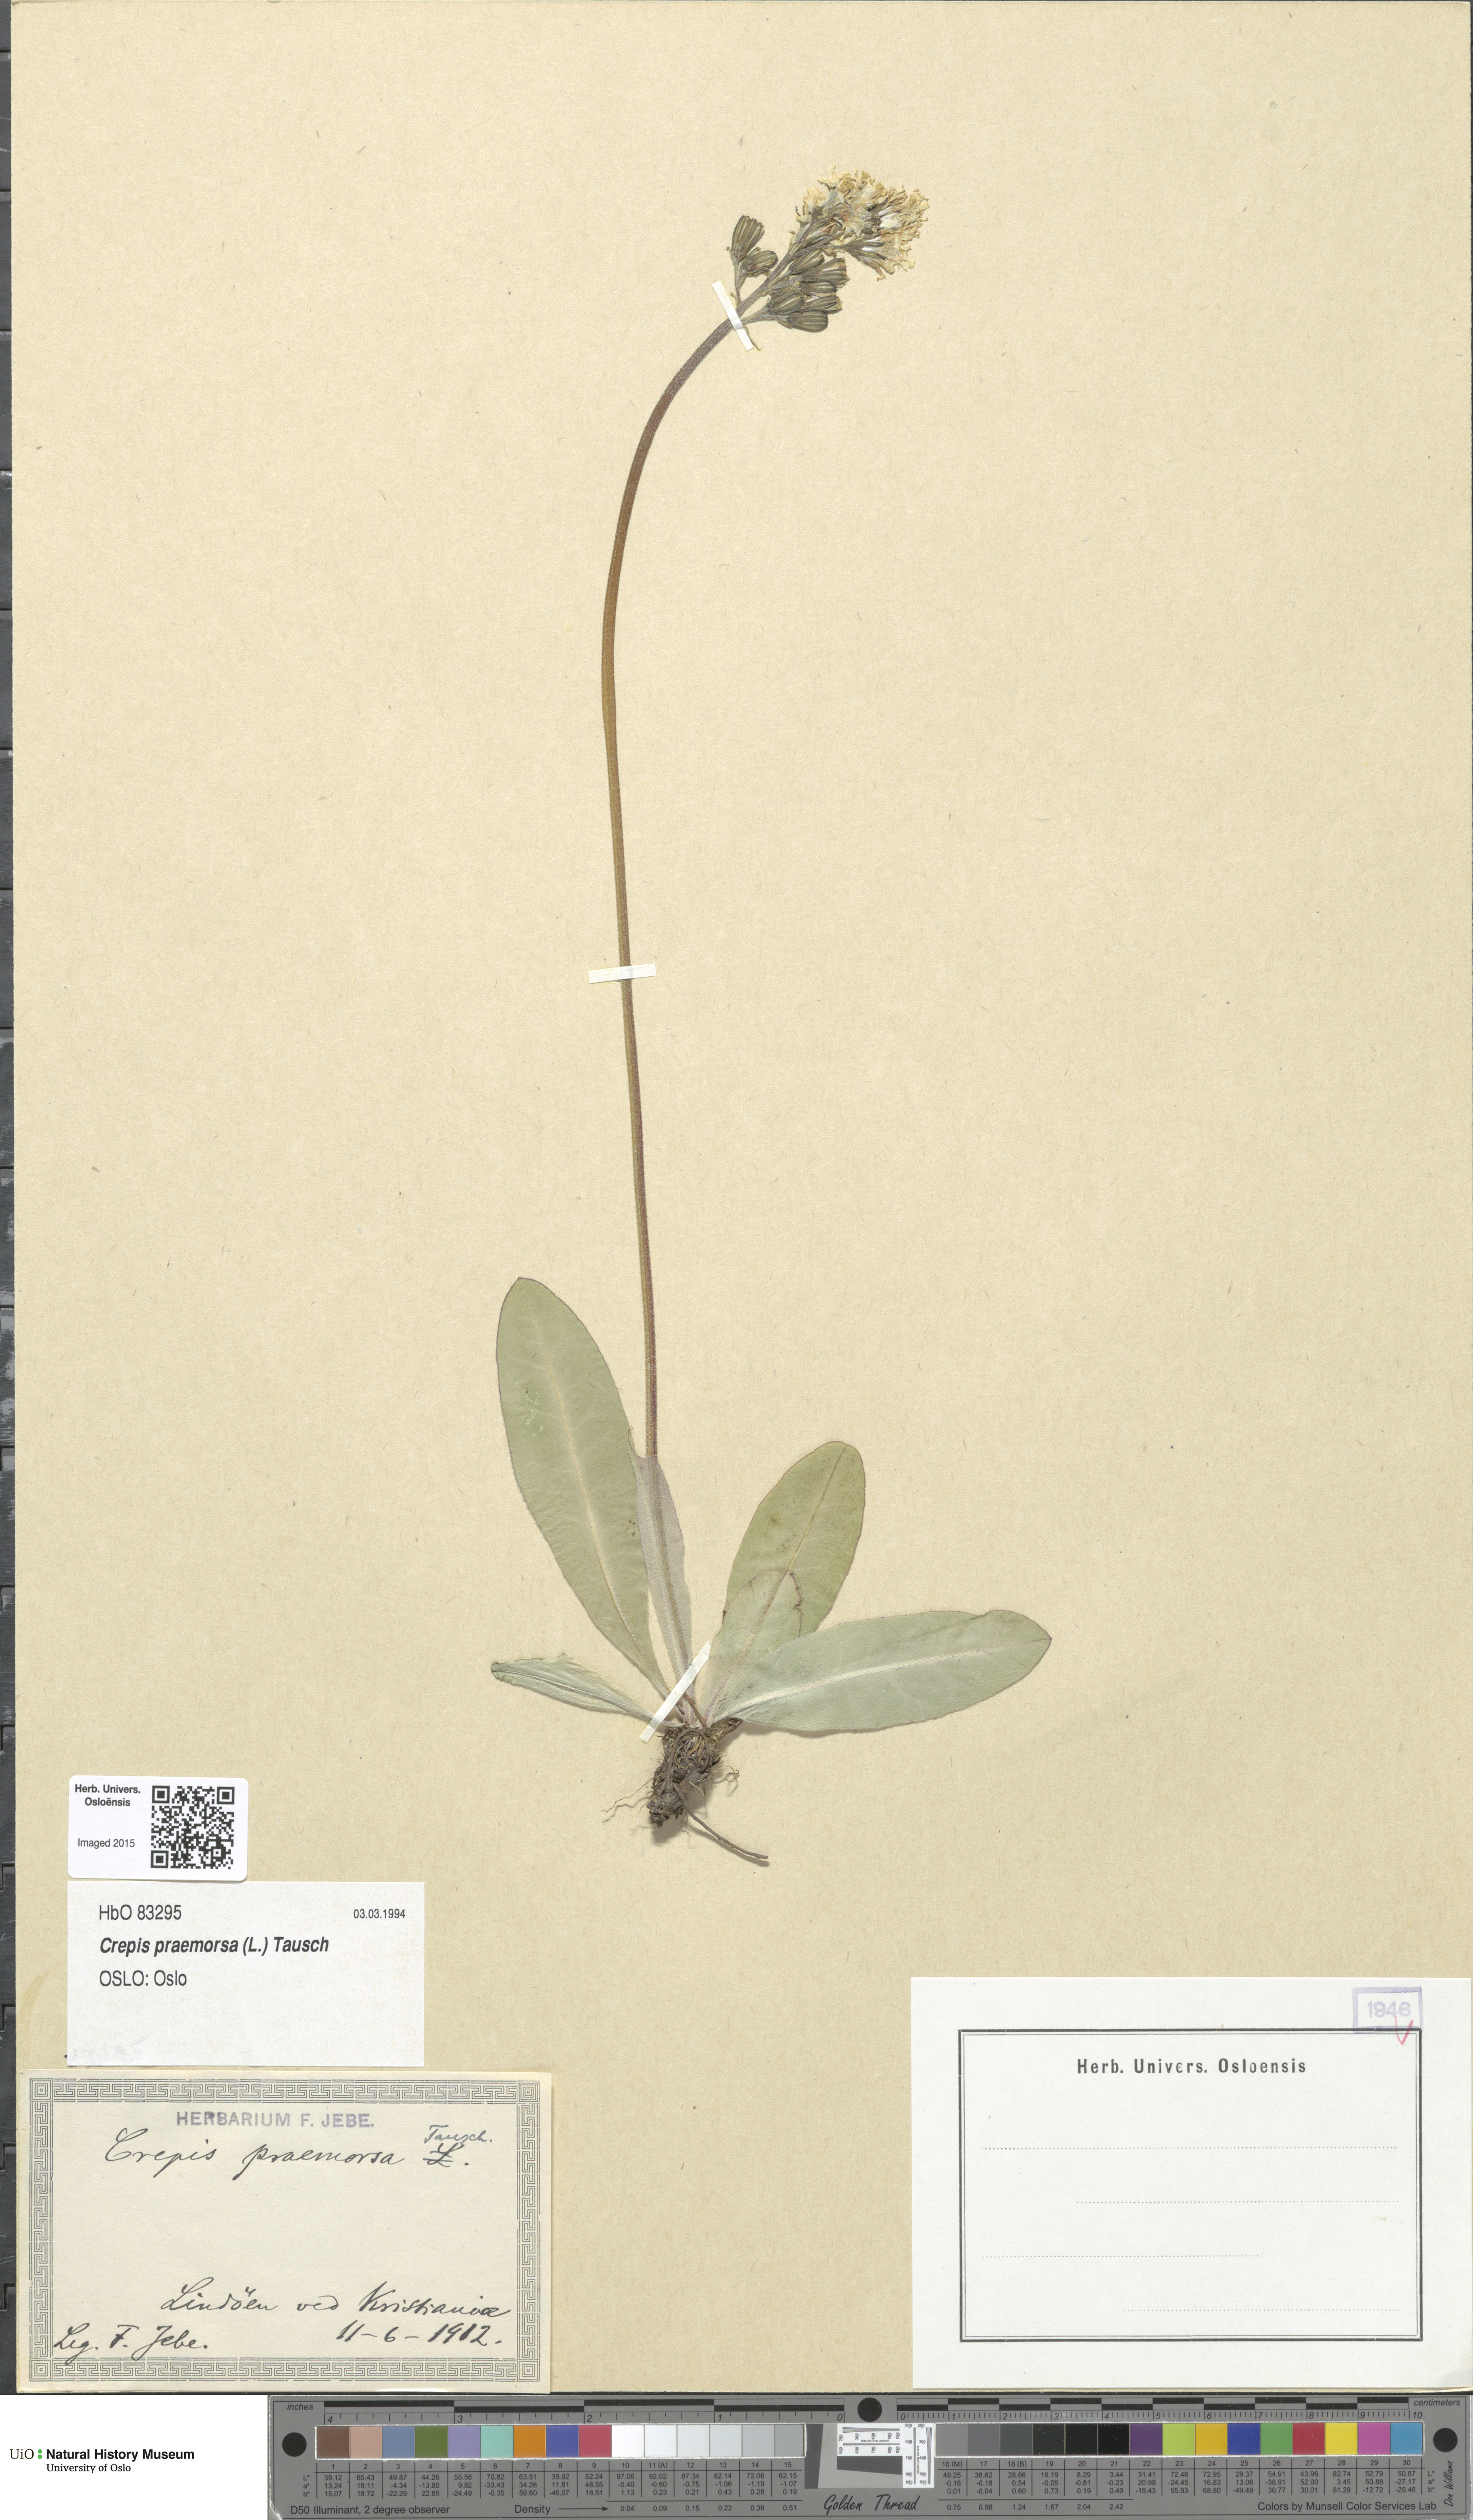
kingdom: Plantae
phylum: Tracheophyta
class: Magnoliopsida
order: Asterales
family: Asteraceae
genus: Crepis
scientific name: Crepis praemorsa
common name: Leafless hawk's-beard
